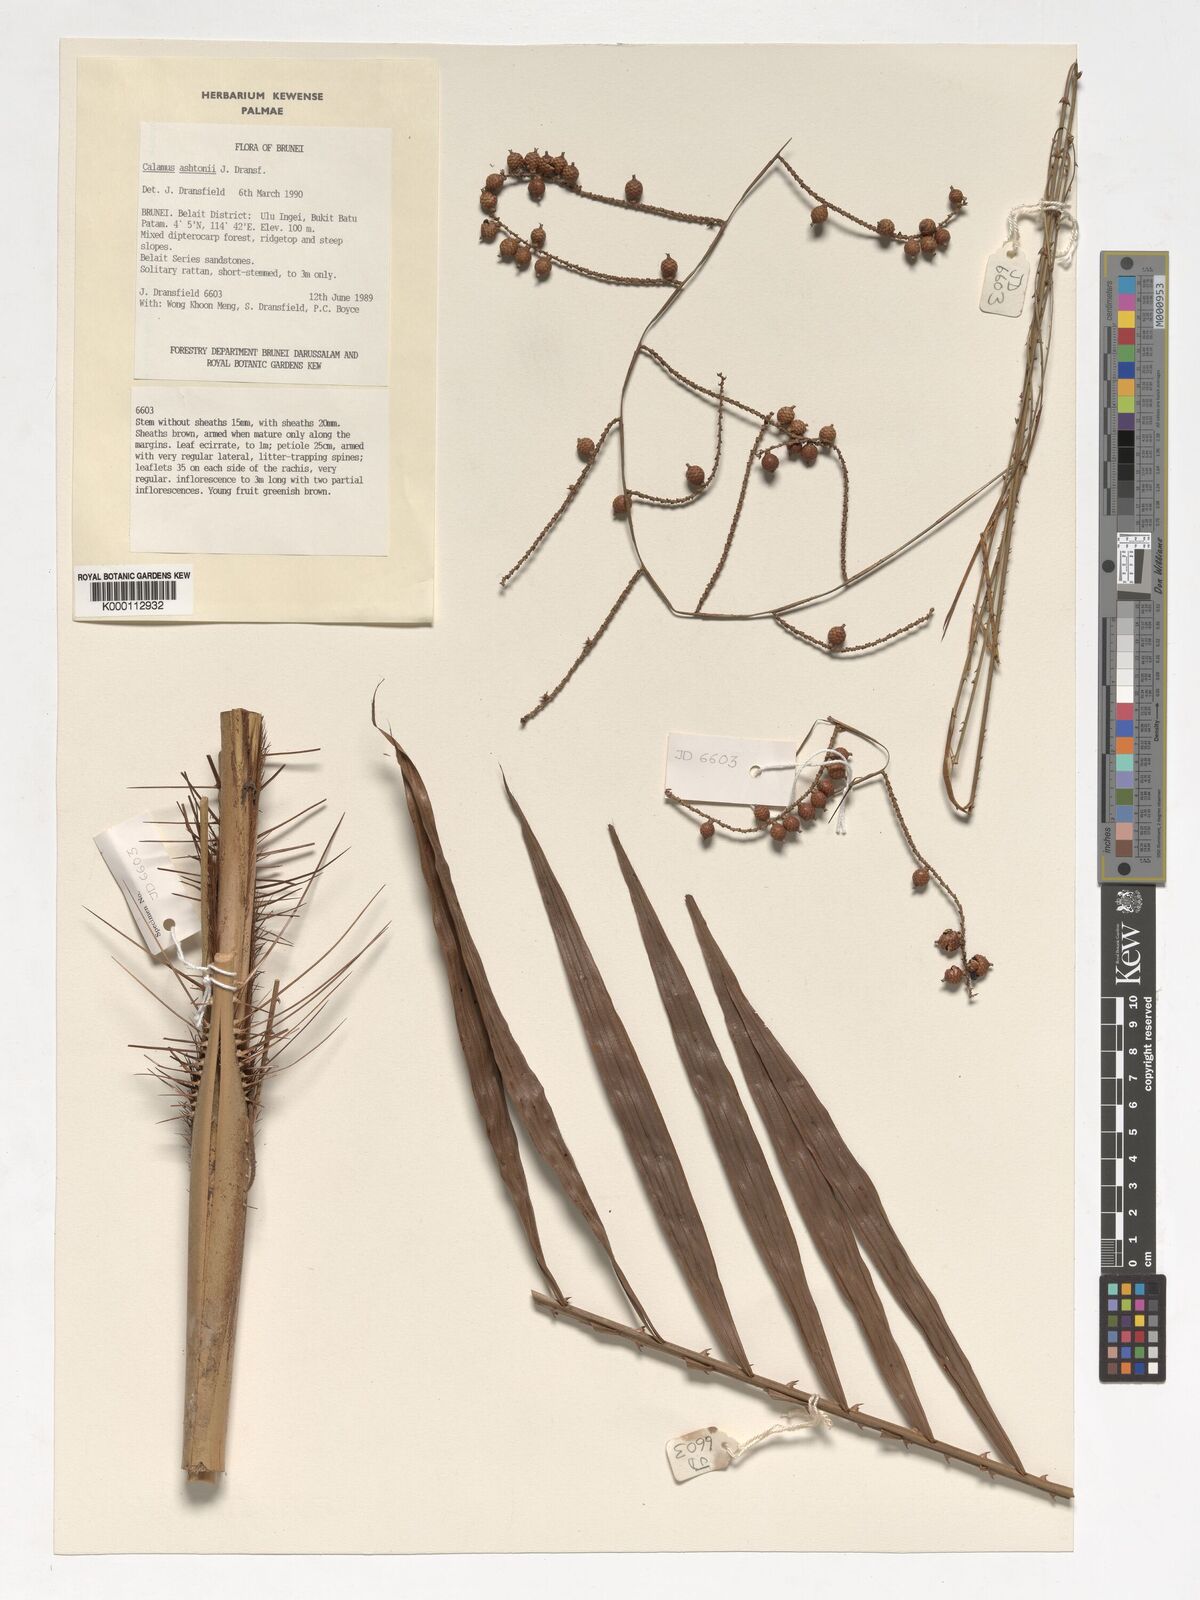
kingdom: Plantae
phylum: Tracheophyta
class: Liliopsida
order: Arecales
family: Arecaceae
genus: Calamus
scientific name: Calamus ashtonii
